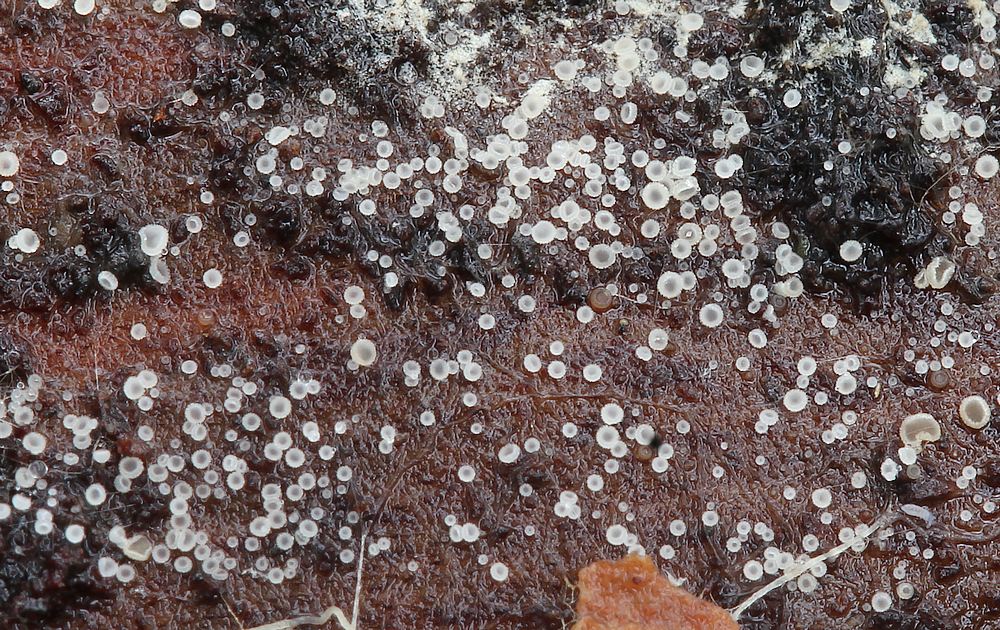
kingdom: Fungi
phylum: Ascomycota
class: Leotiomycetes
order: Helotiales
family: Hyaloscyphaceae
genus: Hyaloscypha
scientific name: Hyaloscypha
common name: klarskive
